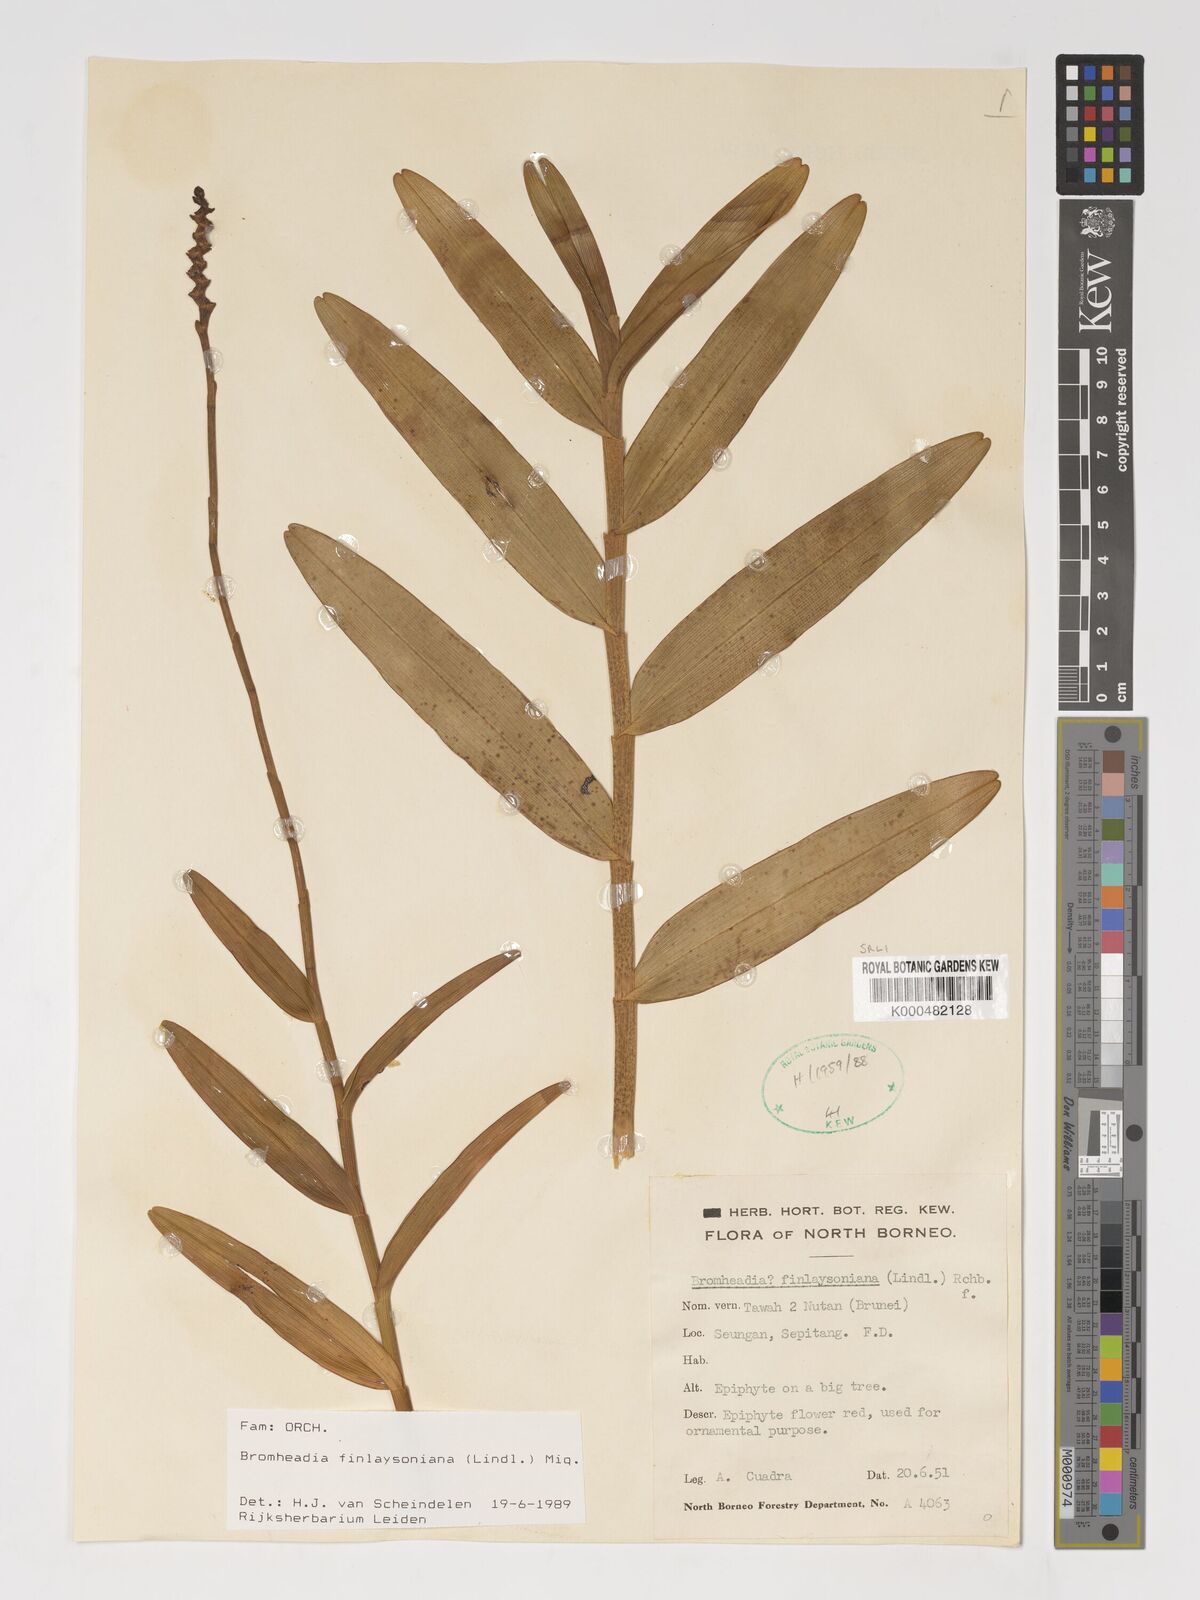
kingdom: Plantae
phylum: Tracheophyta
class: Liliopsida
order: Asparagales
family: Orchidaceae
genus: Bromheadia
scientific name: Bromheadia finlaysoniana
